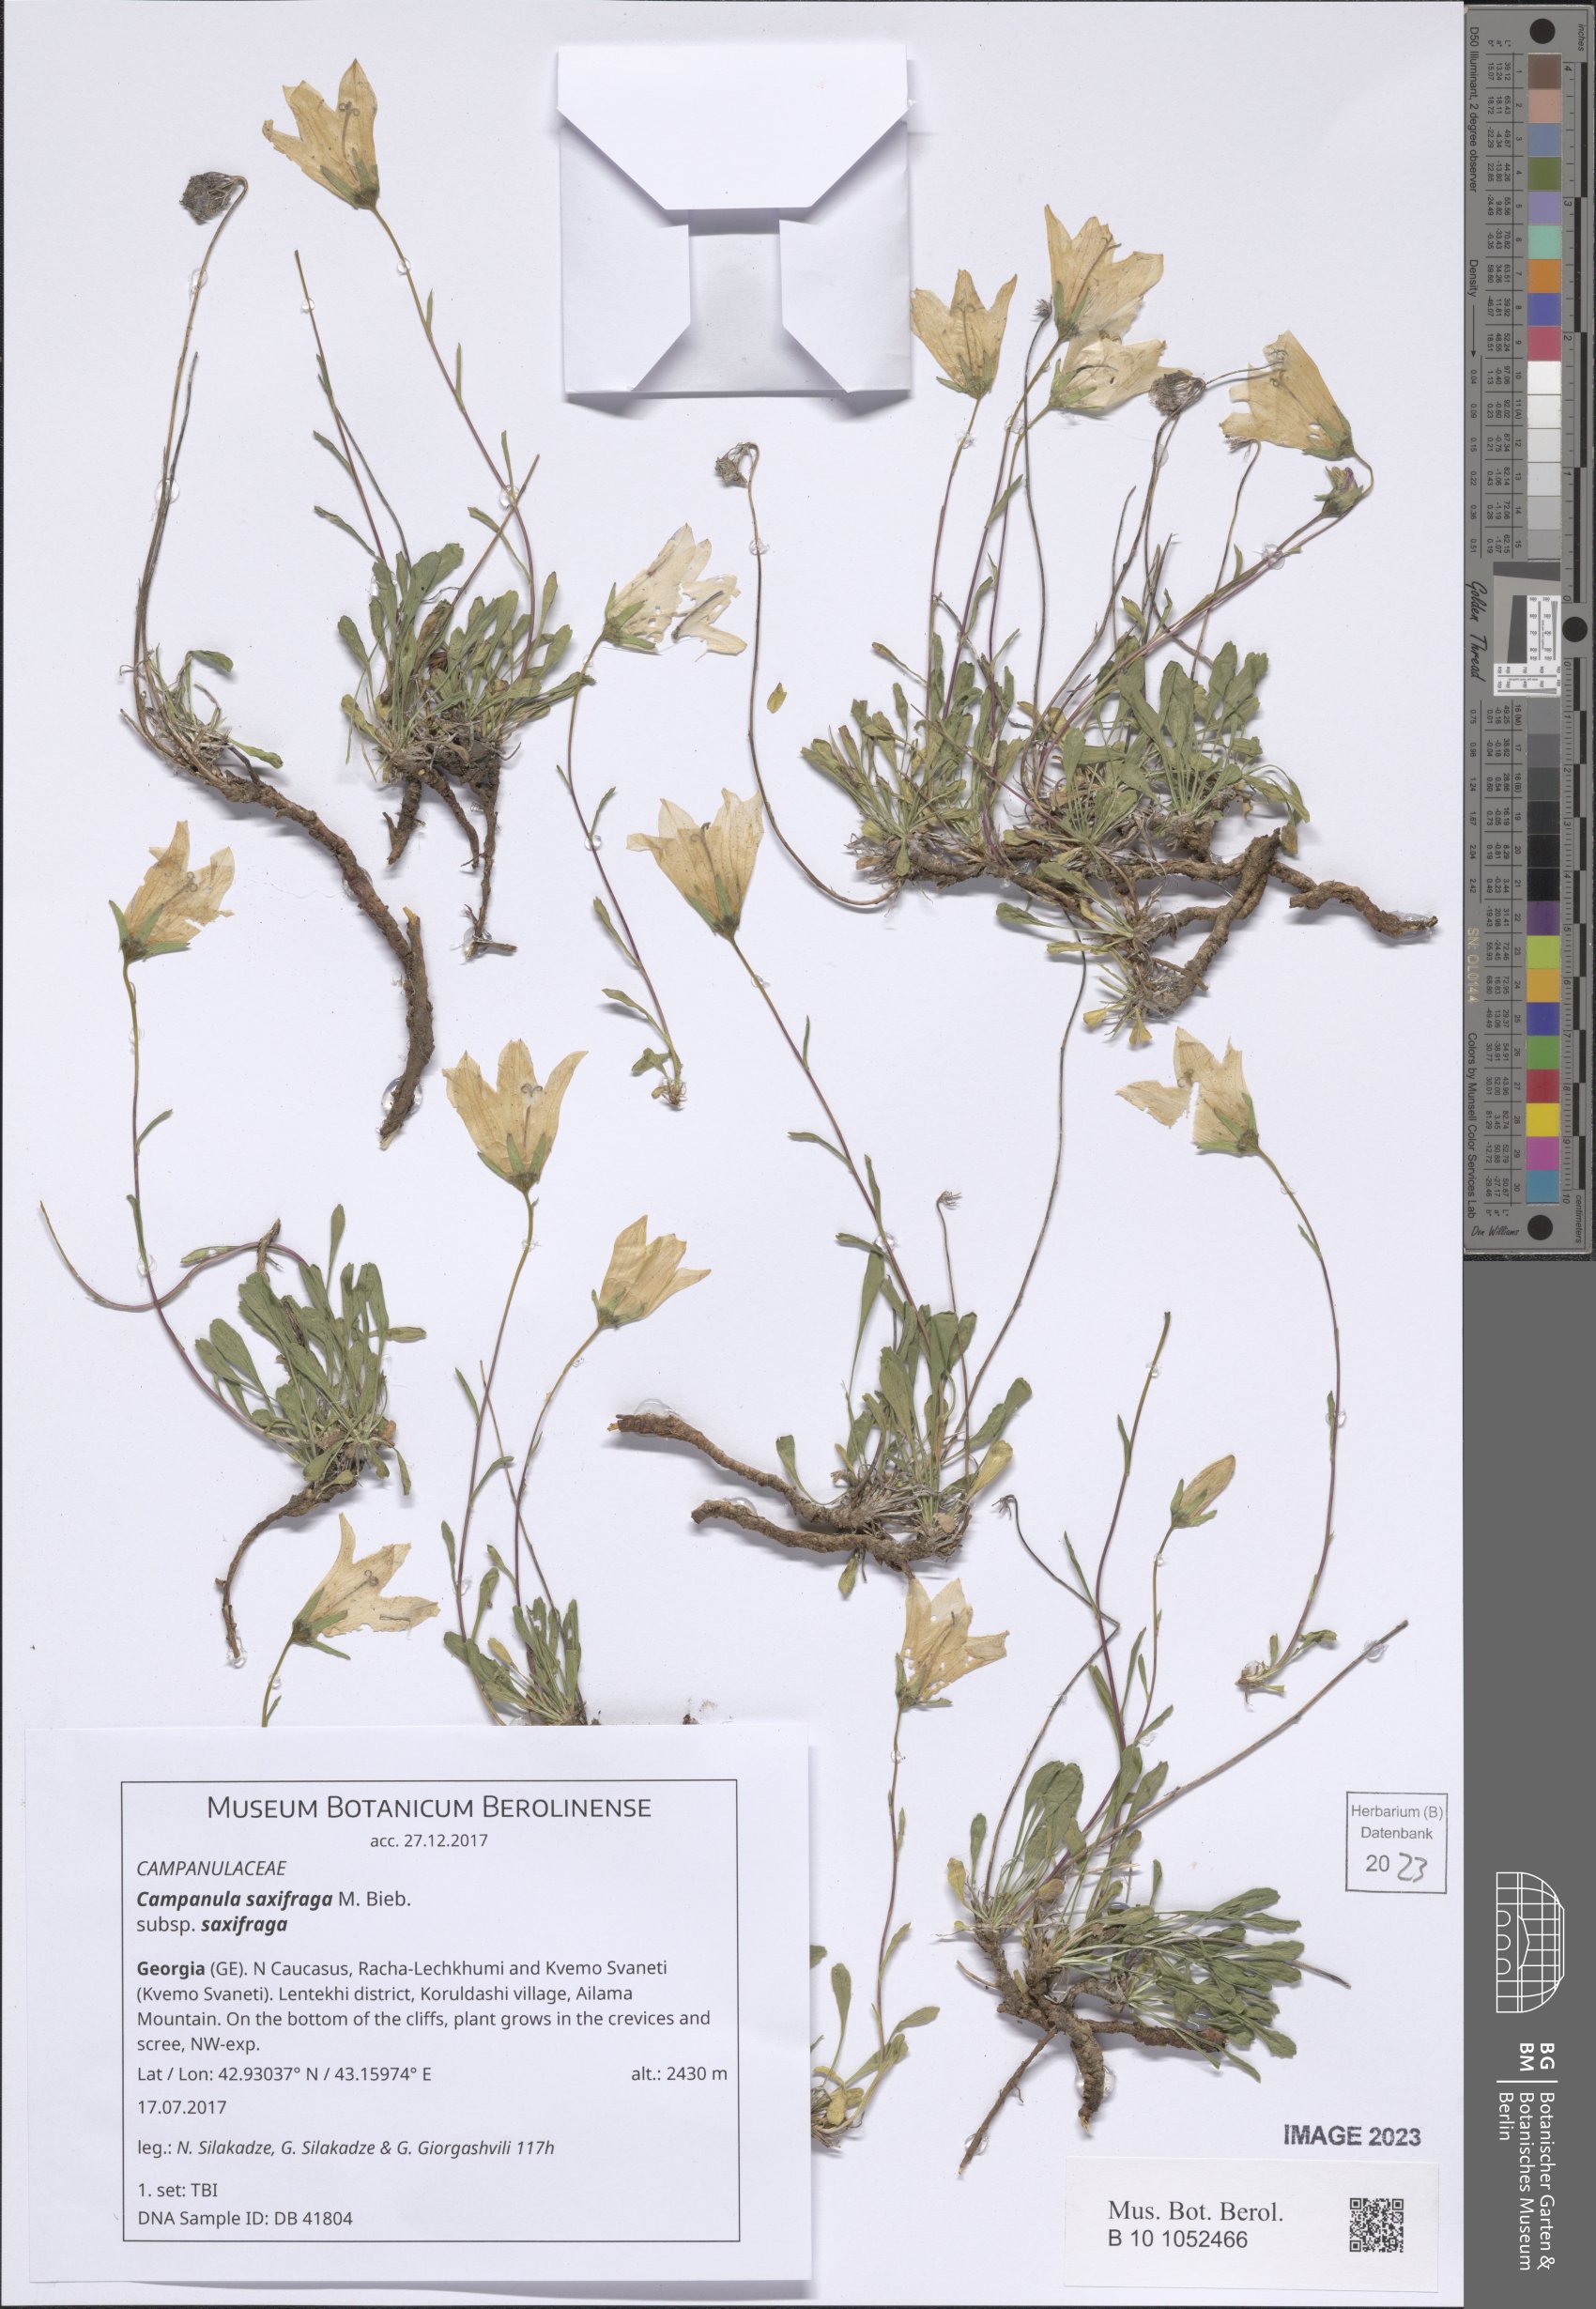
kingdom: Plantae
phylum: Tracheophyta
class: Magnoliopsida
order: Asterales
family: Campanulaceae
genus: Campanula
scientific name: Campanula saxifraga
